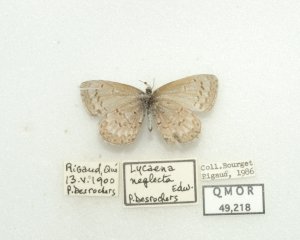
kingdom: Animalia
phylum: Arthropoda
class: Insecta
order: Lepidoptera
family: Lycaenidae
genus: Celastrina
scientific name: Celastrina lucia
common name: Northern Spring Azure
